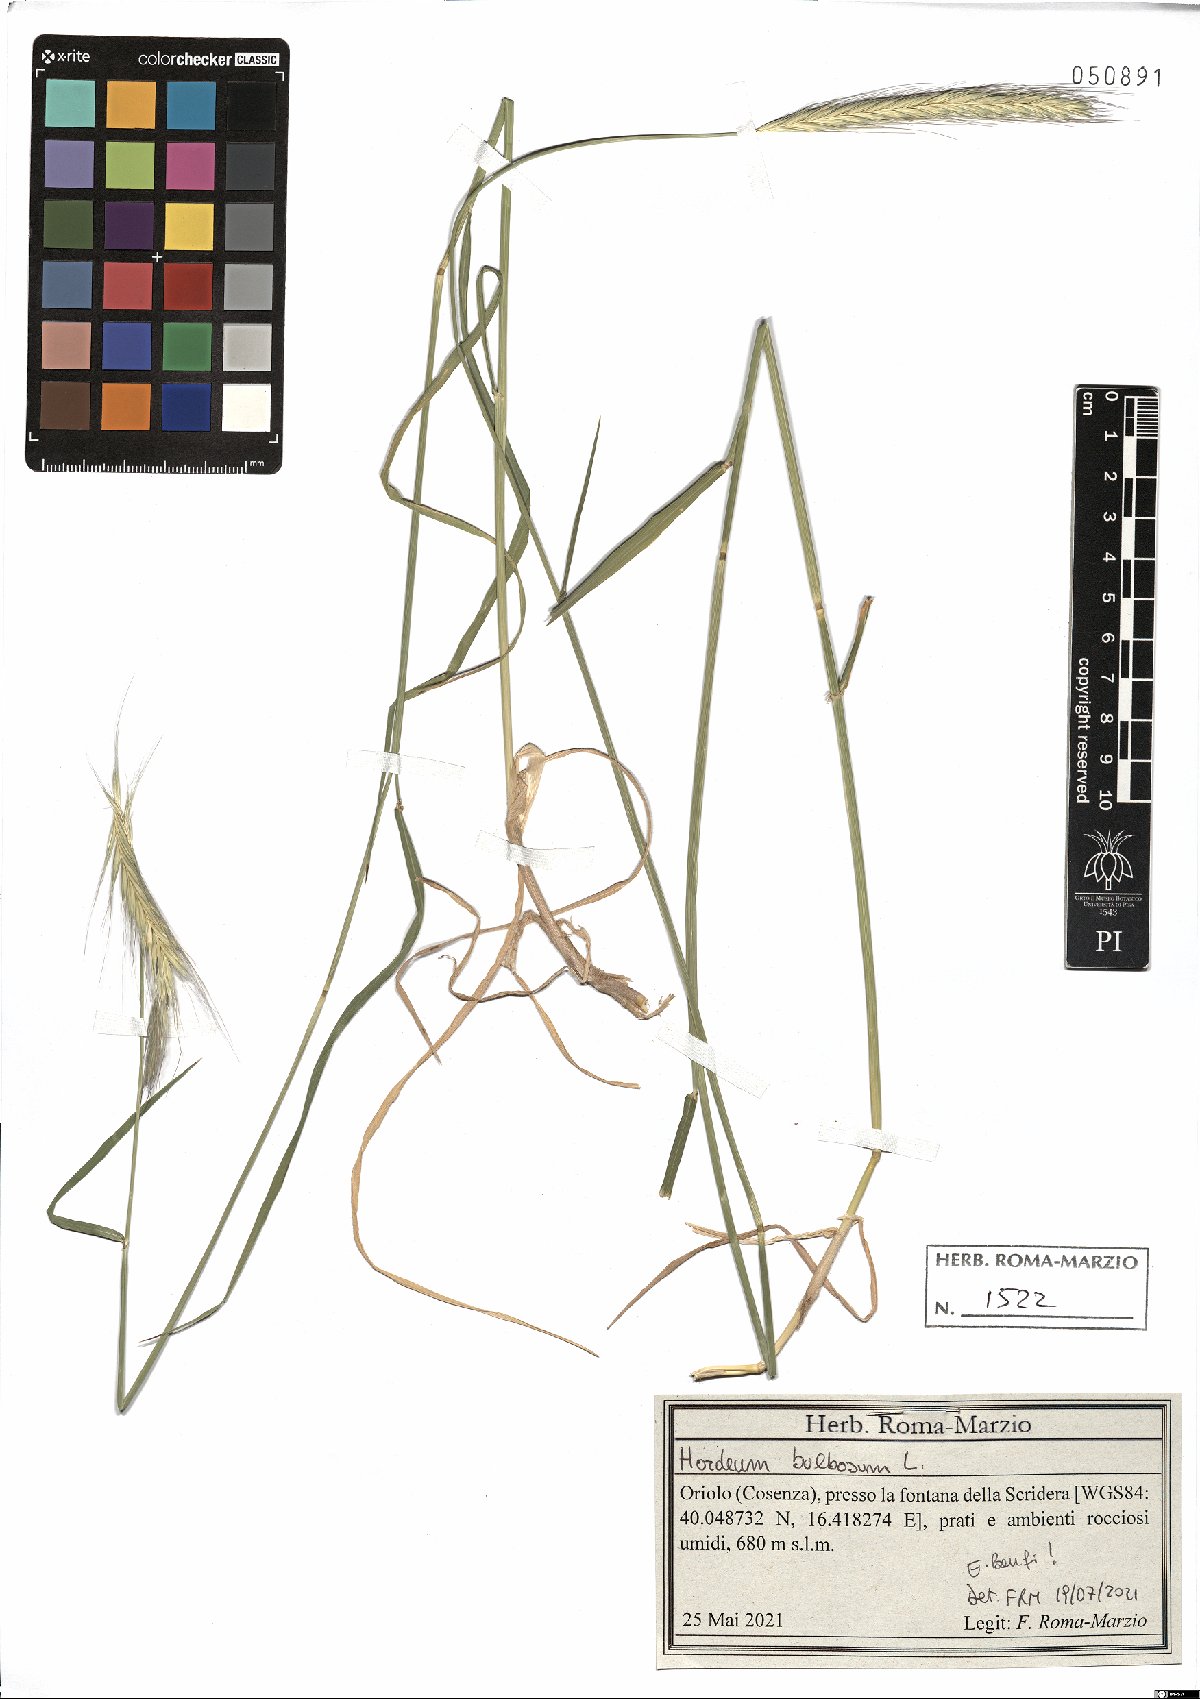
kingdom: Plantae
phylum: Tracheophyta
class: Liliopsida
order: Poales
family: Poaceae
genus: Hordeum
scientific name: Hordeum bulbosum
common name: Bulbous barley
